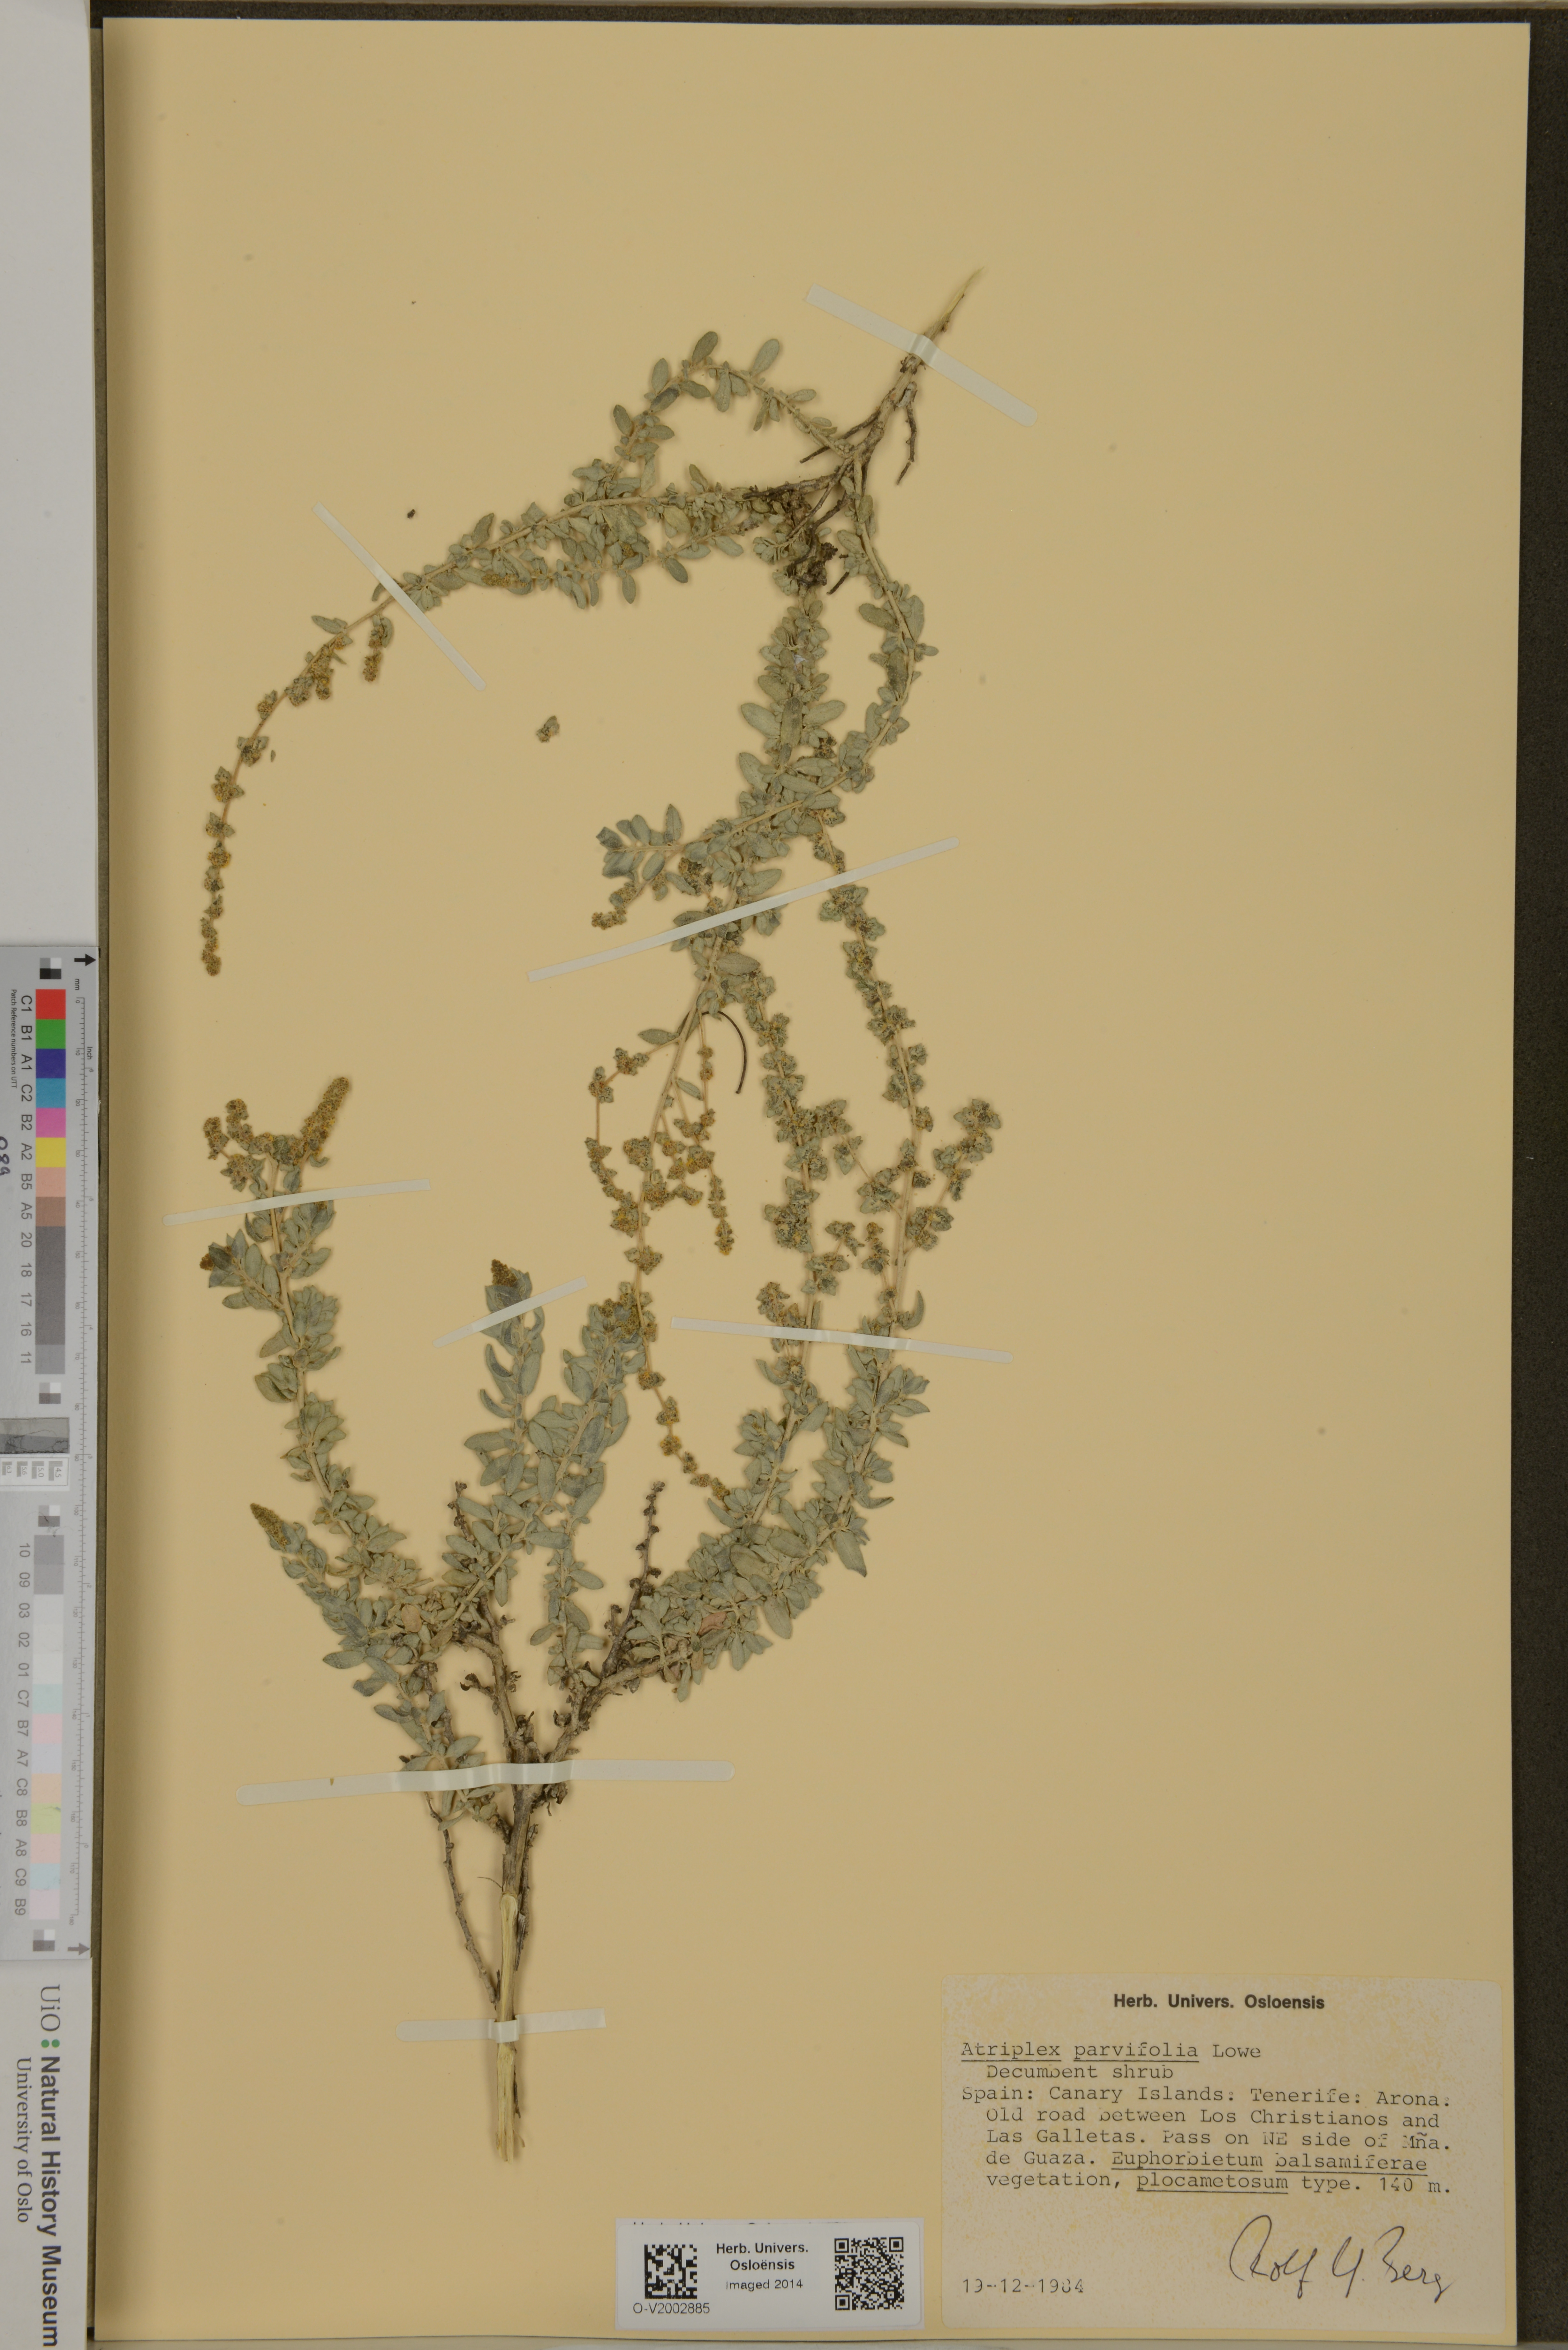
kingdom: Plantae
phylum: Tracheophyta
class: Magnoliopsida
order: Caryophyllales
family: Amaranthaceae
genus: Atriplex
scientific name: Atriplex glauca
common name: Waxy saltbush
